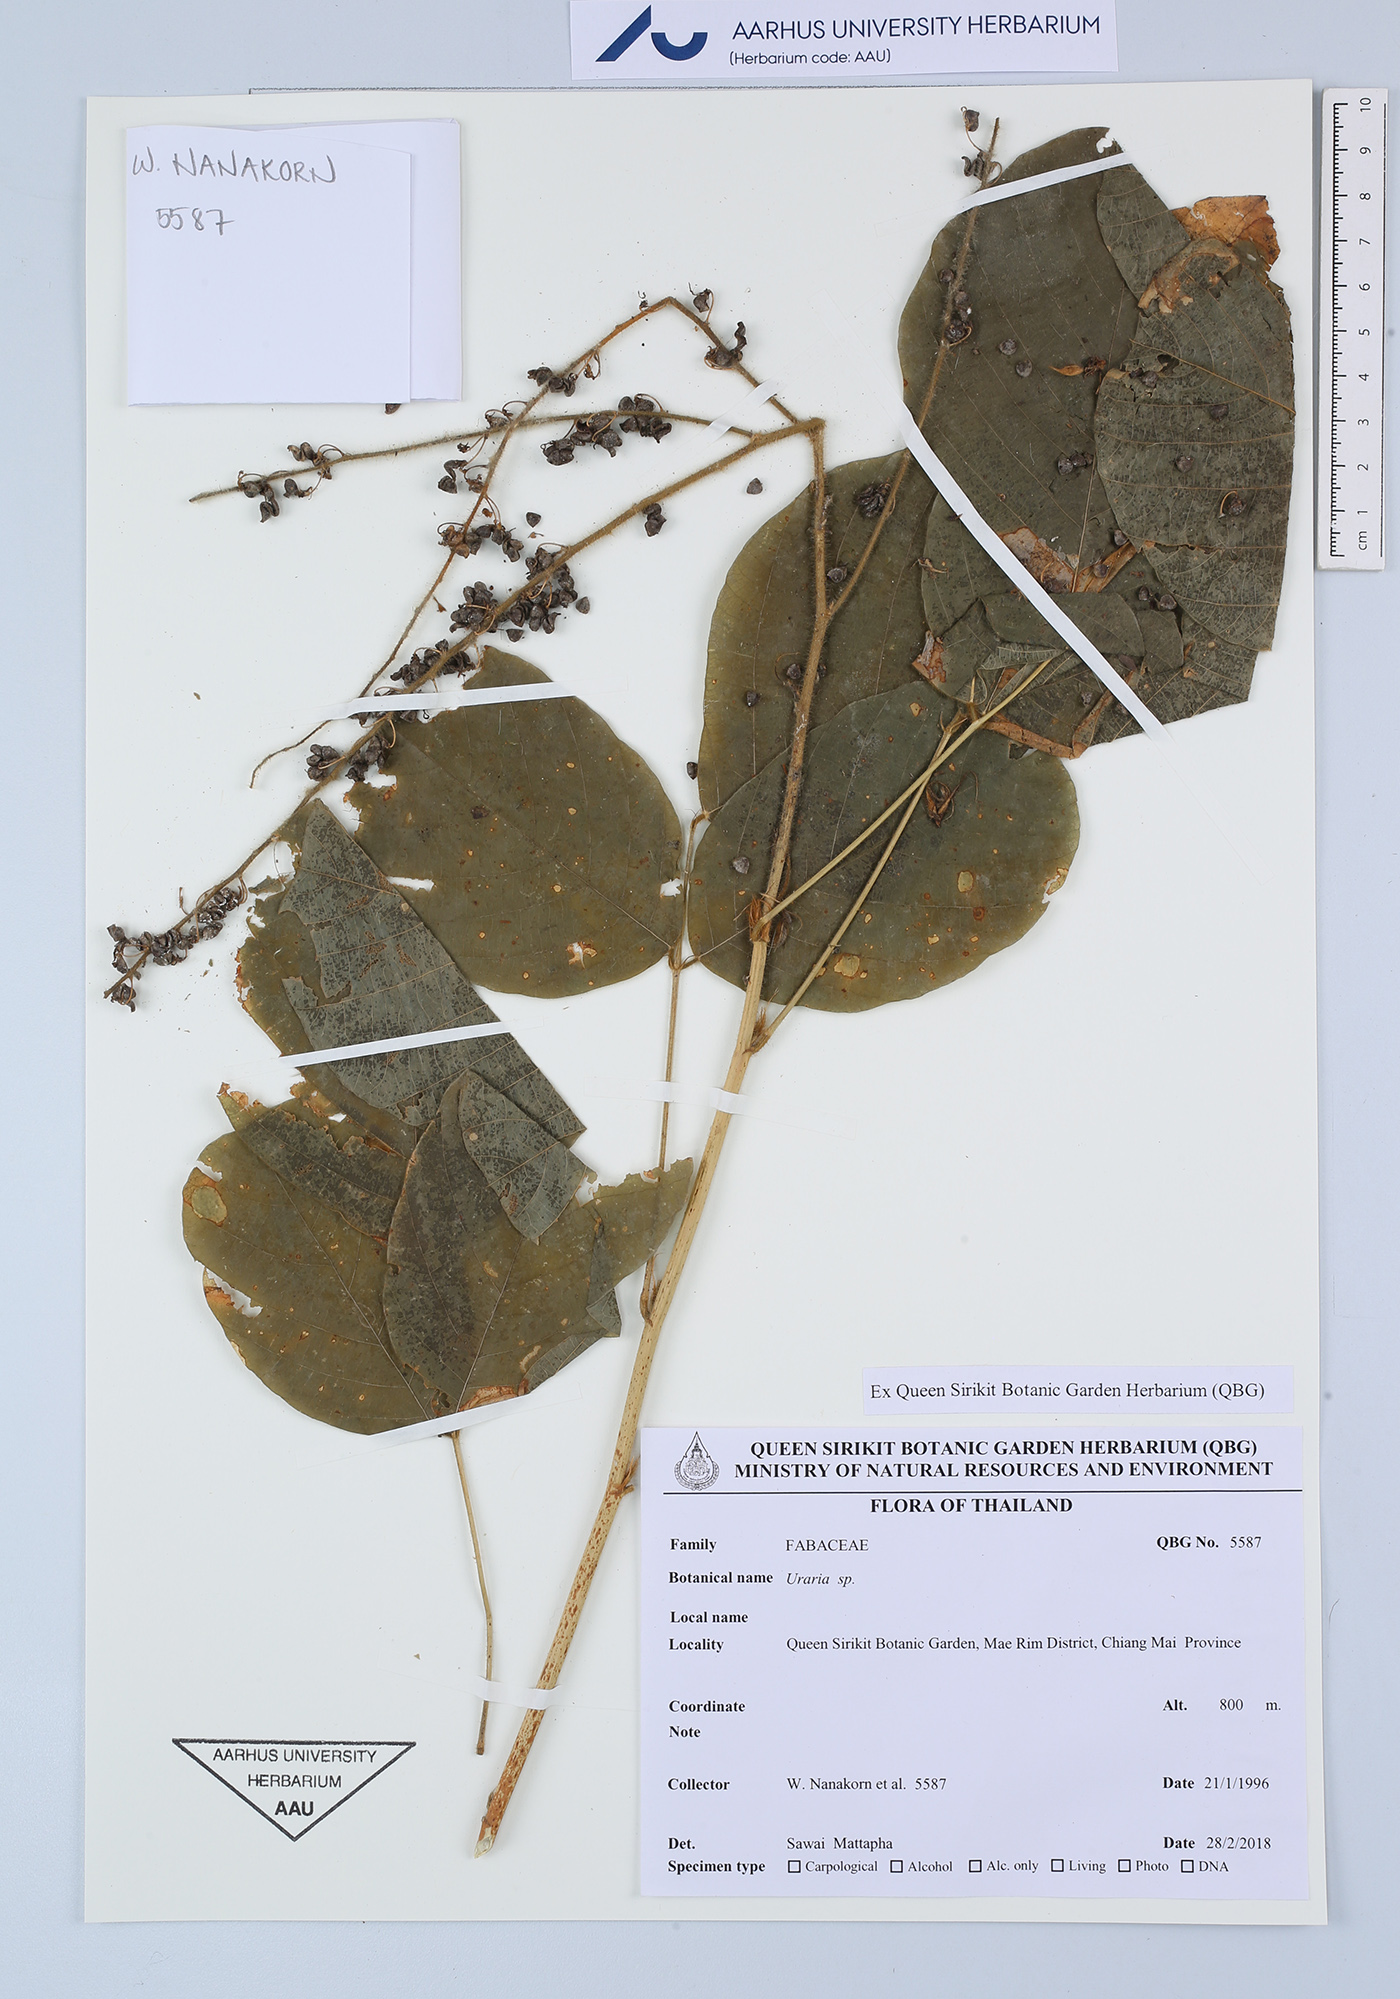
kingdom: Plantae
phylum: Tracheophyta
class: Magnoliopsida
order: Fabales
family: Fabaceae
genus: Uraria
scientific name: Uraria
